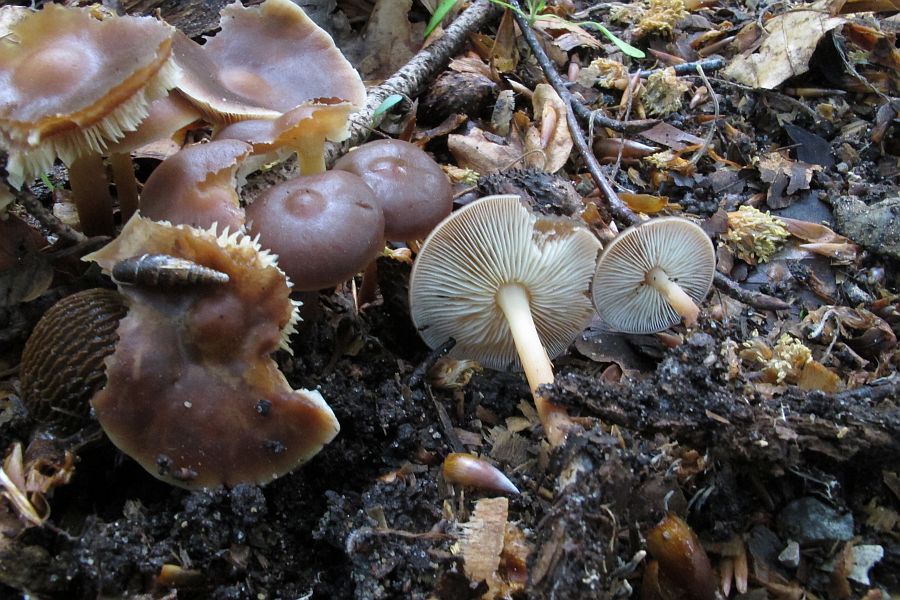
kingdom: Fungi
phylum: Basidiomycota
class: Agaricomycetes
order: Agaricales
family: Omphalotaceae
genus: Gymnopus
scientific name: Gymnopus ocior
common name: mørk fladhat
